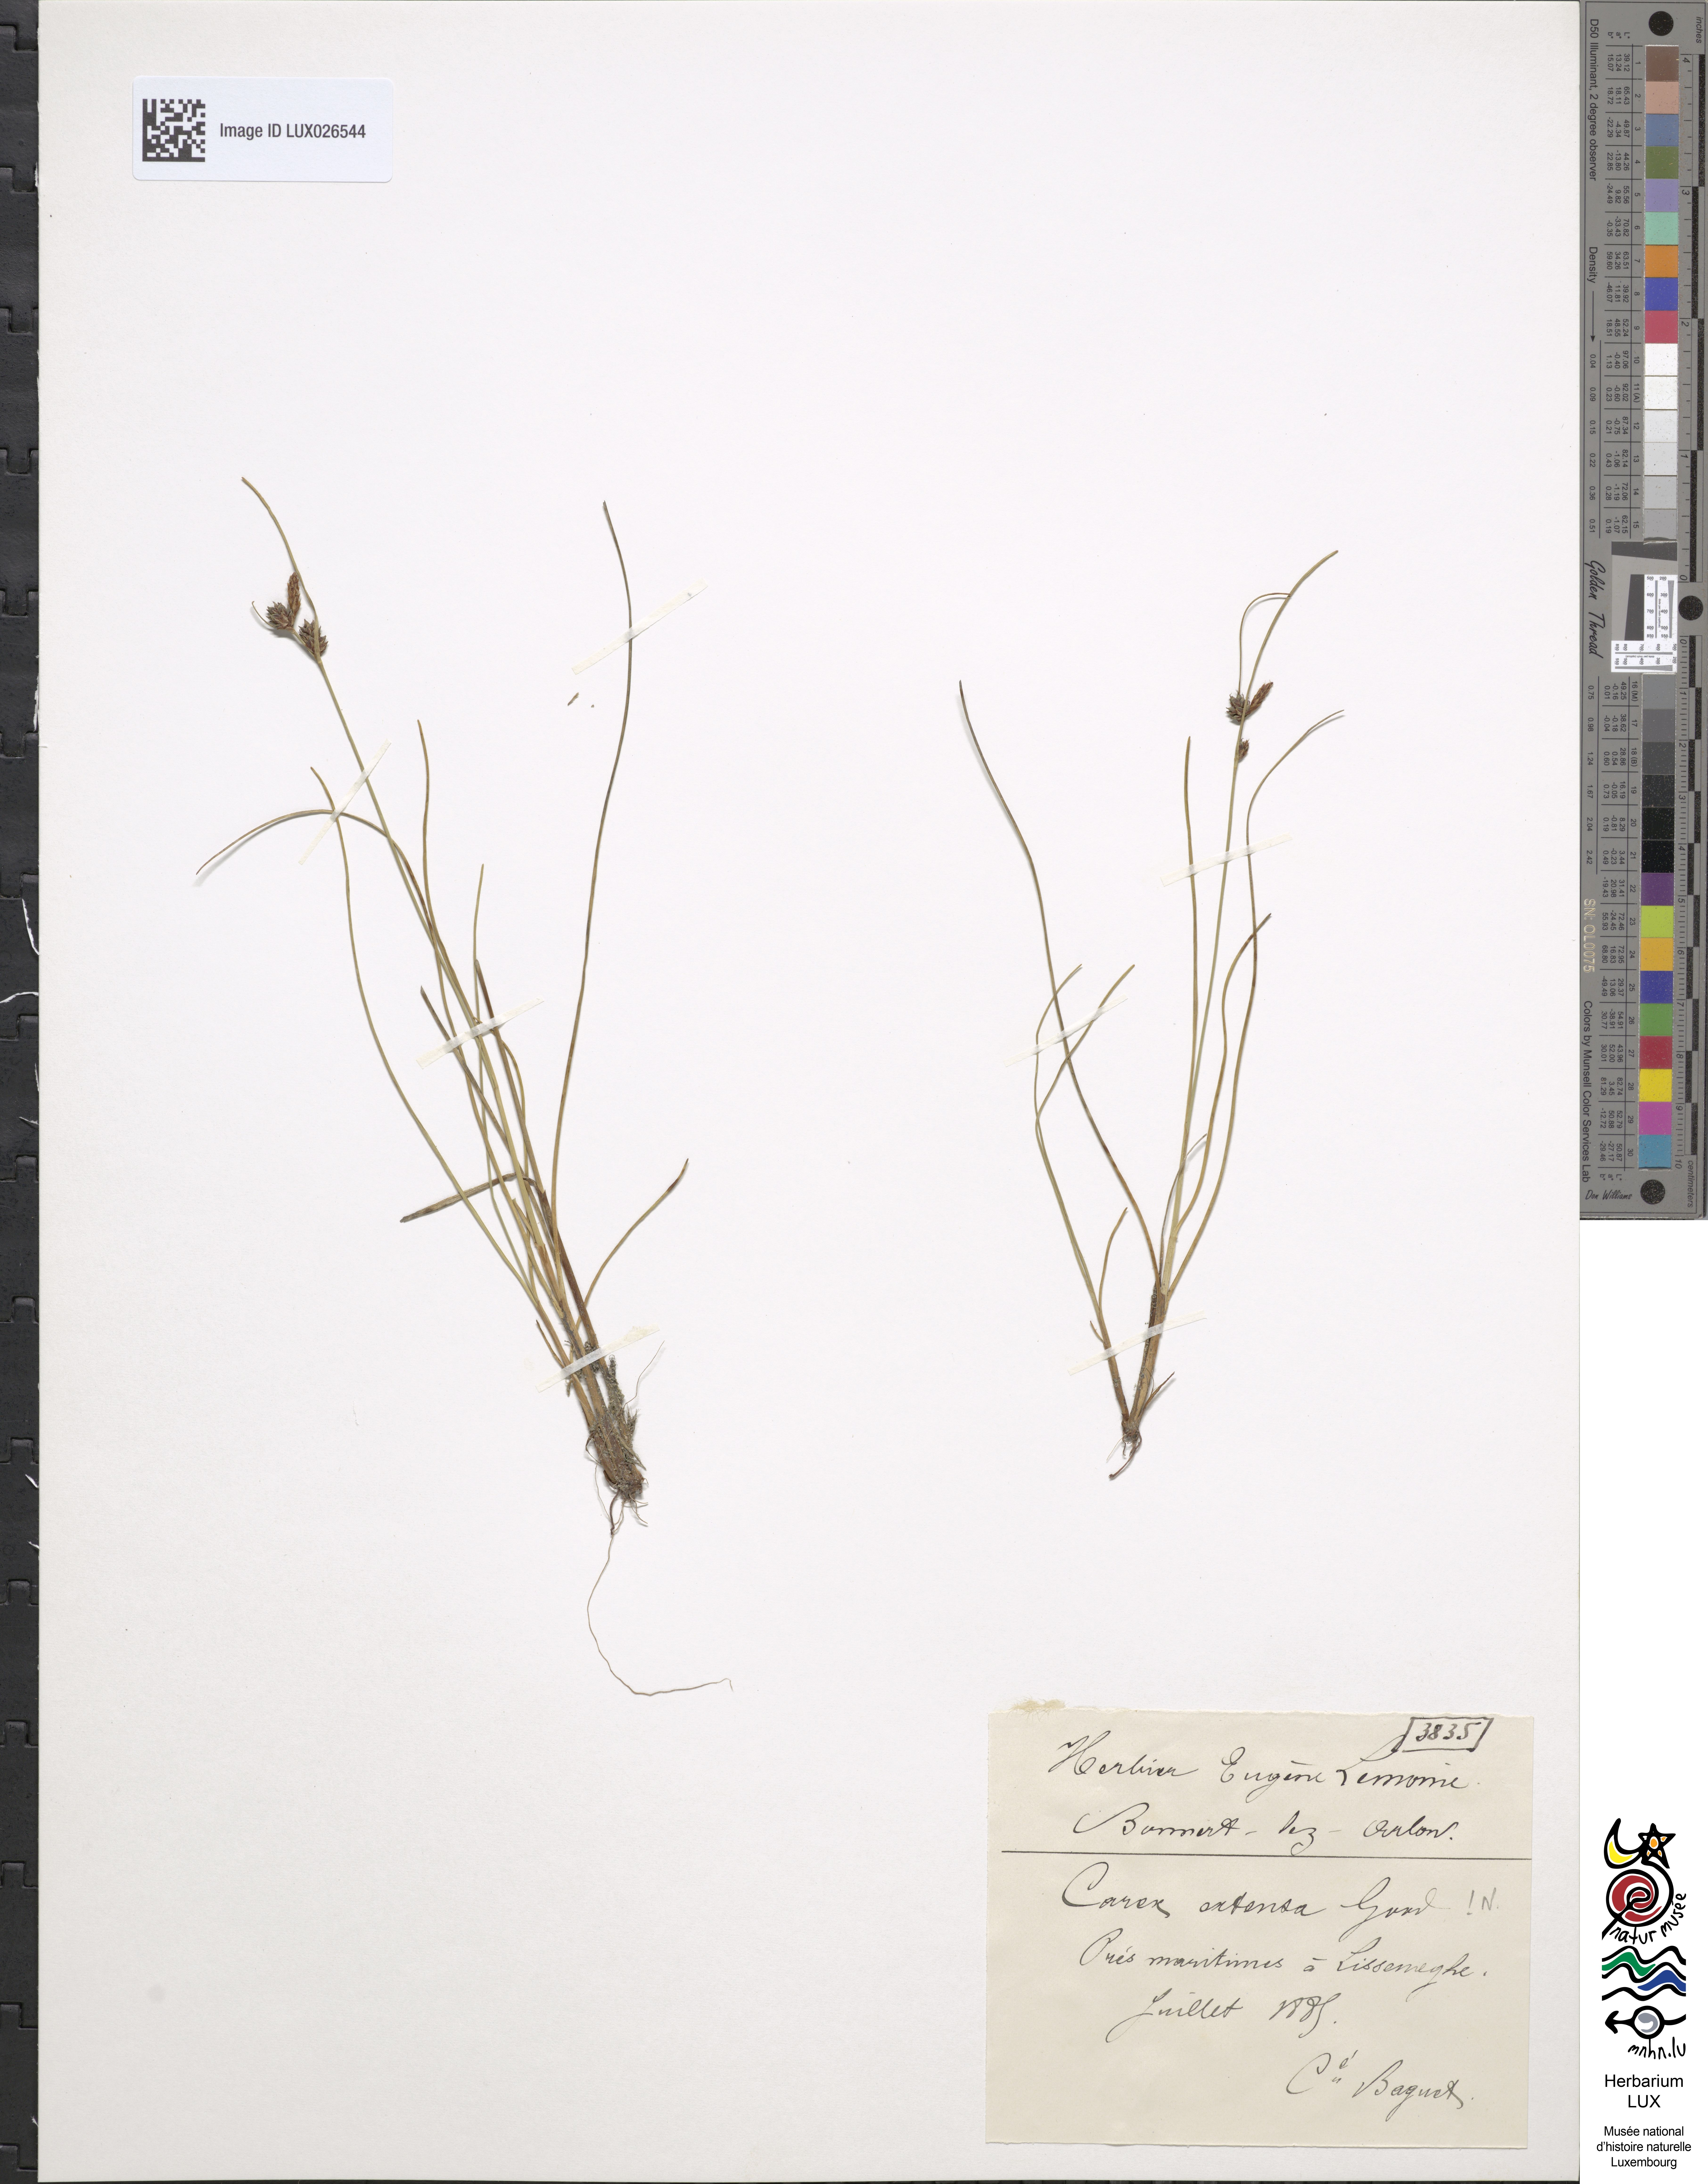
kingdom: Plantae
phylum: Tracheophyta
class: Liliopsida
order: Poales
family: Cyperaceae
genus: Carex
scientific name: Carex extensa
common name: Long-bracted sedge
